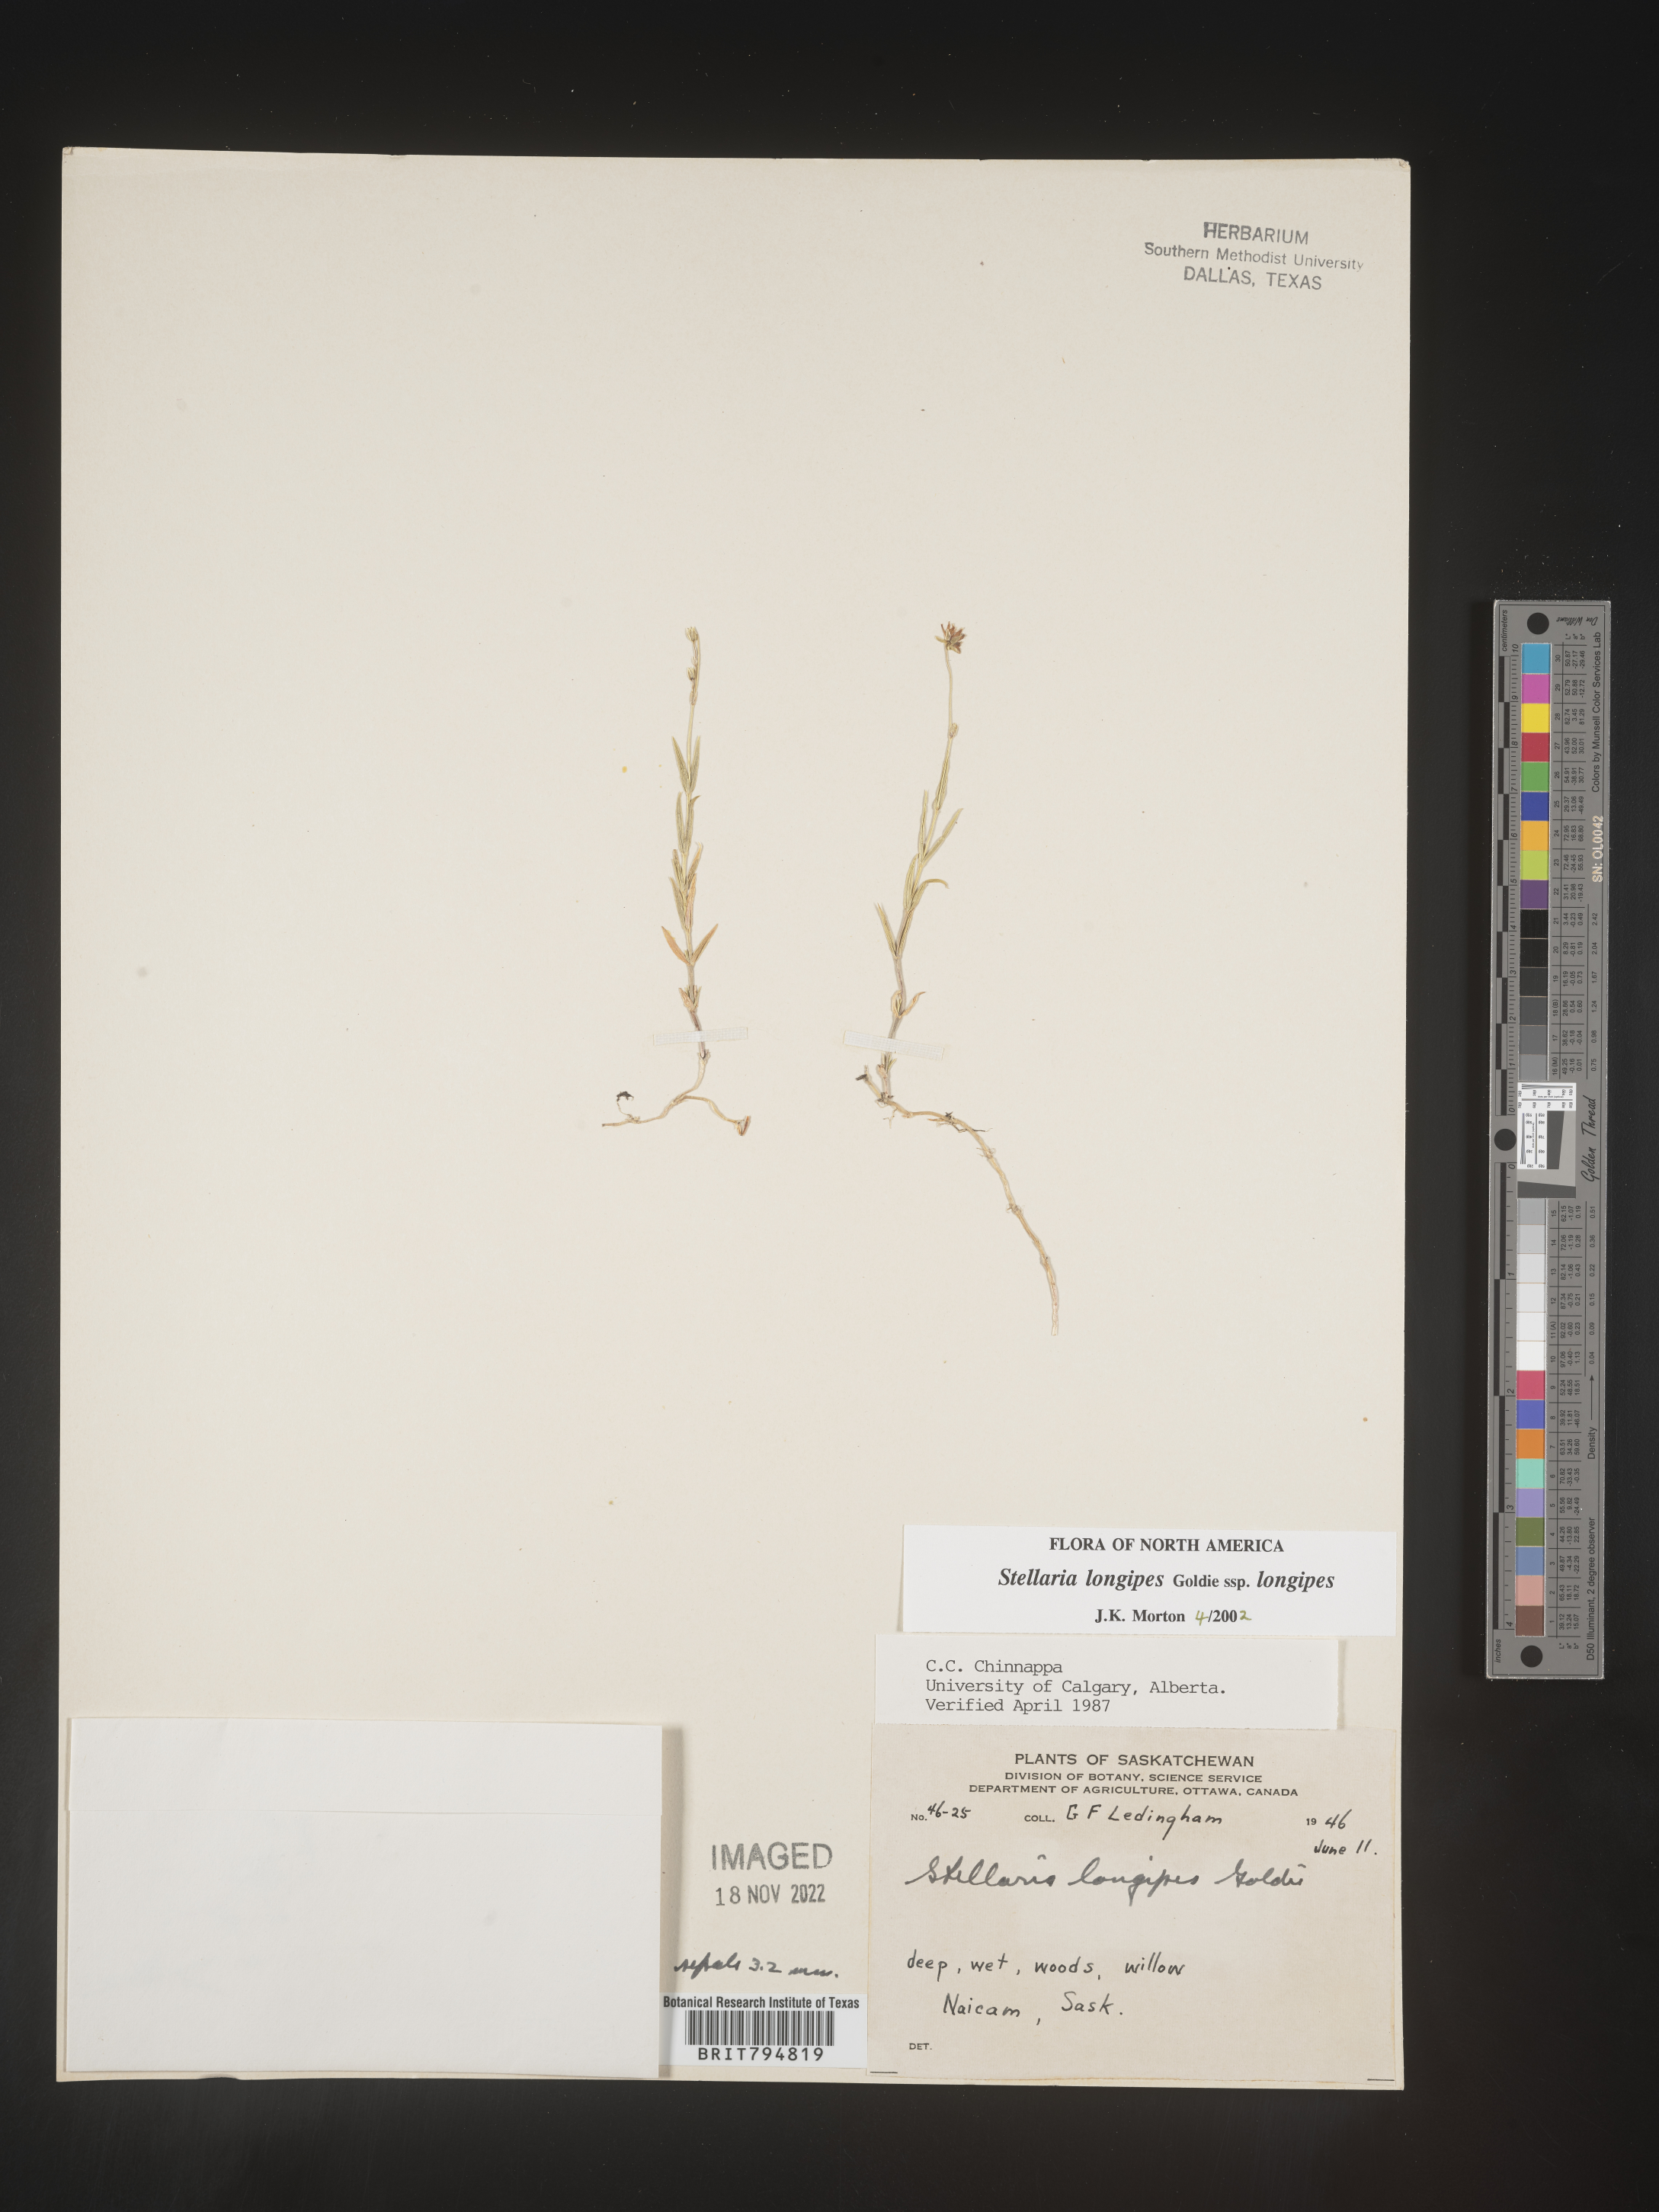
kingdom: Plantae
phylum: Tracheophyta
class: Magnoliopsida
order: Caryophyllales
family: Caryophyllaceae
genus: Stellaria
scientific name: Stellaria longipes
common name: Goldie's starwort
